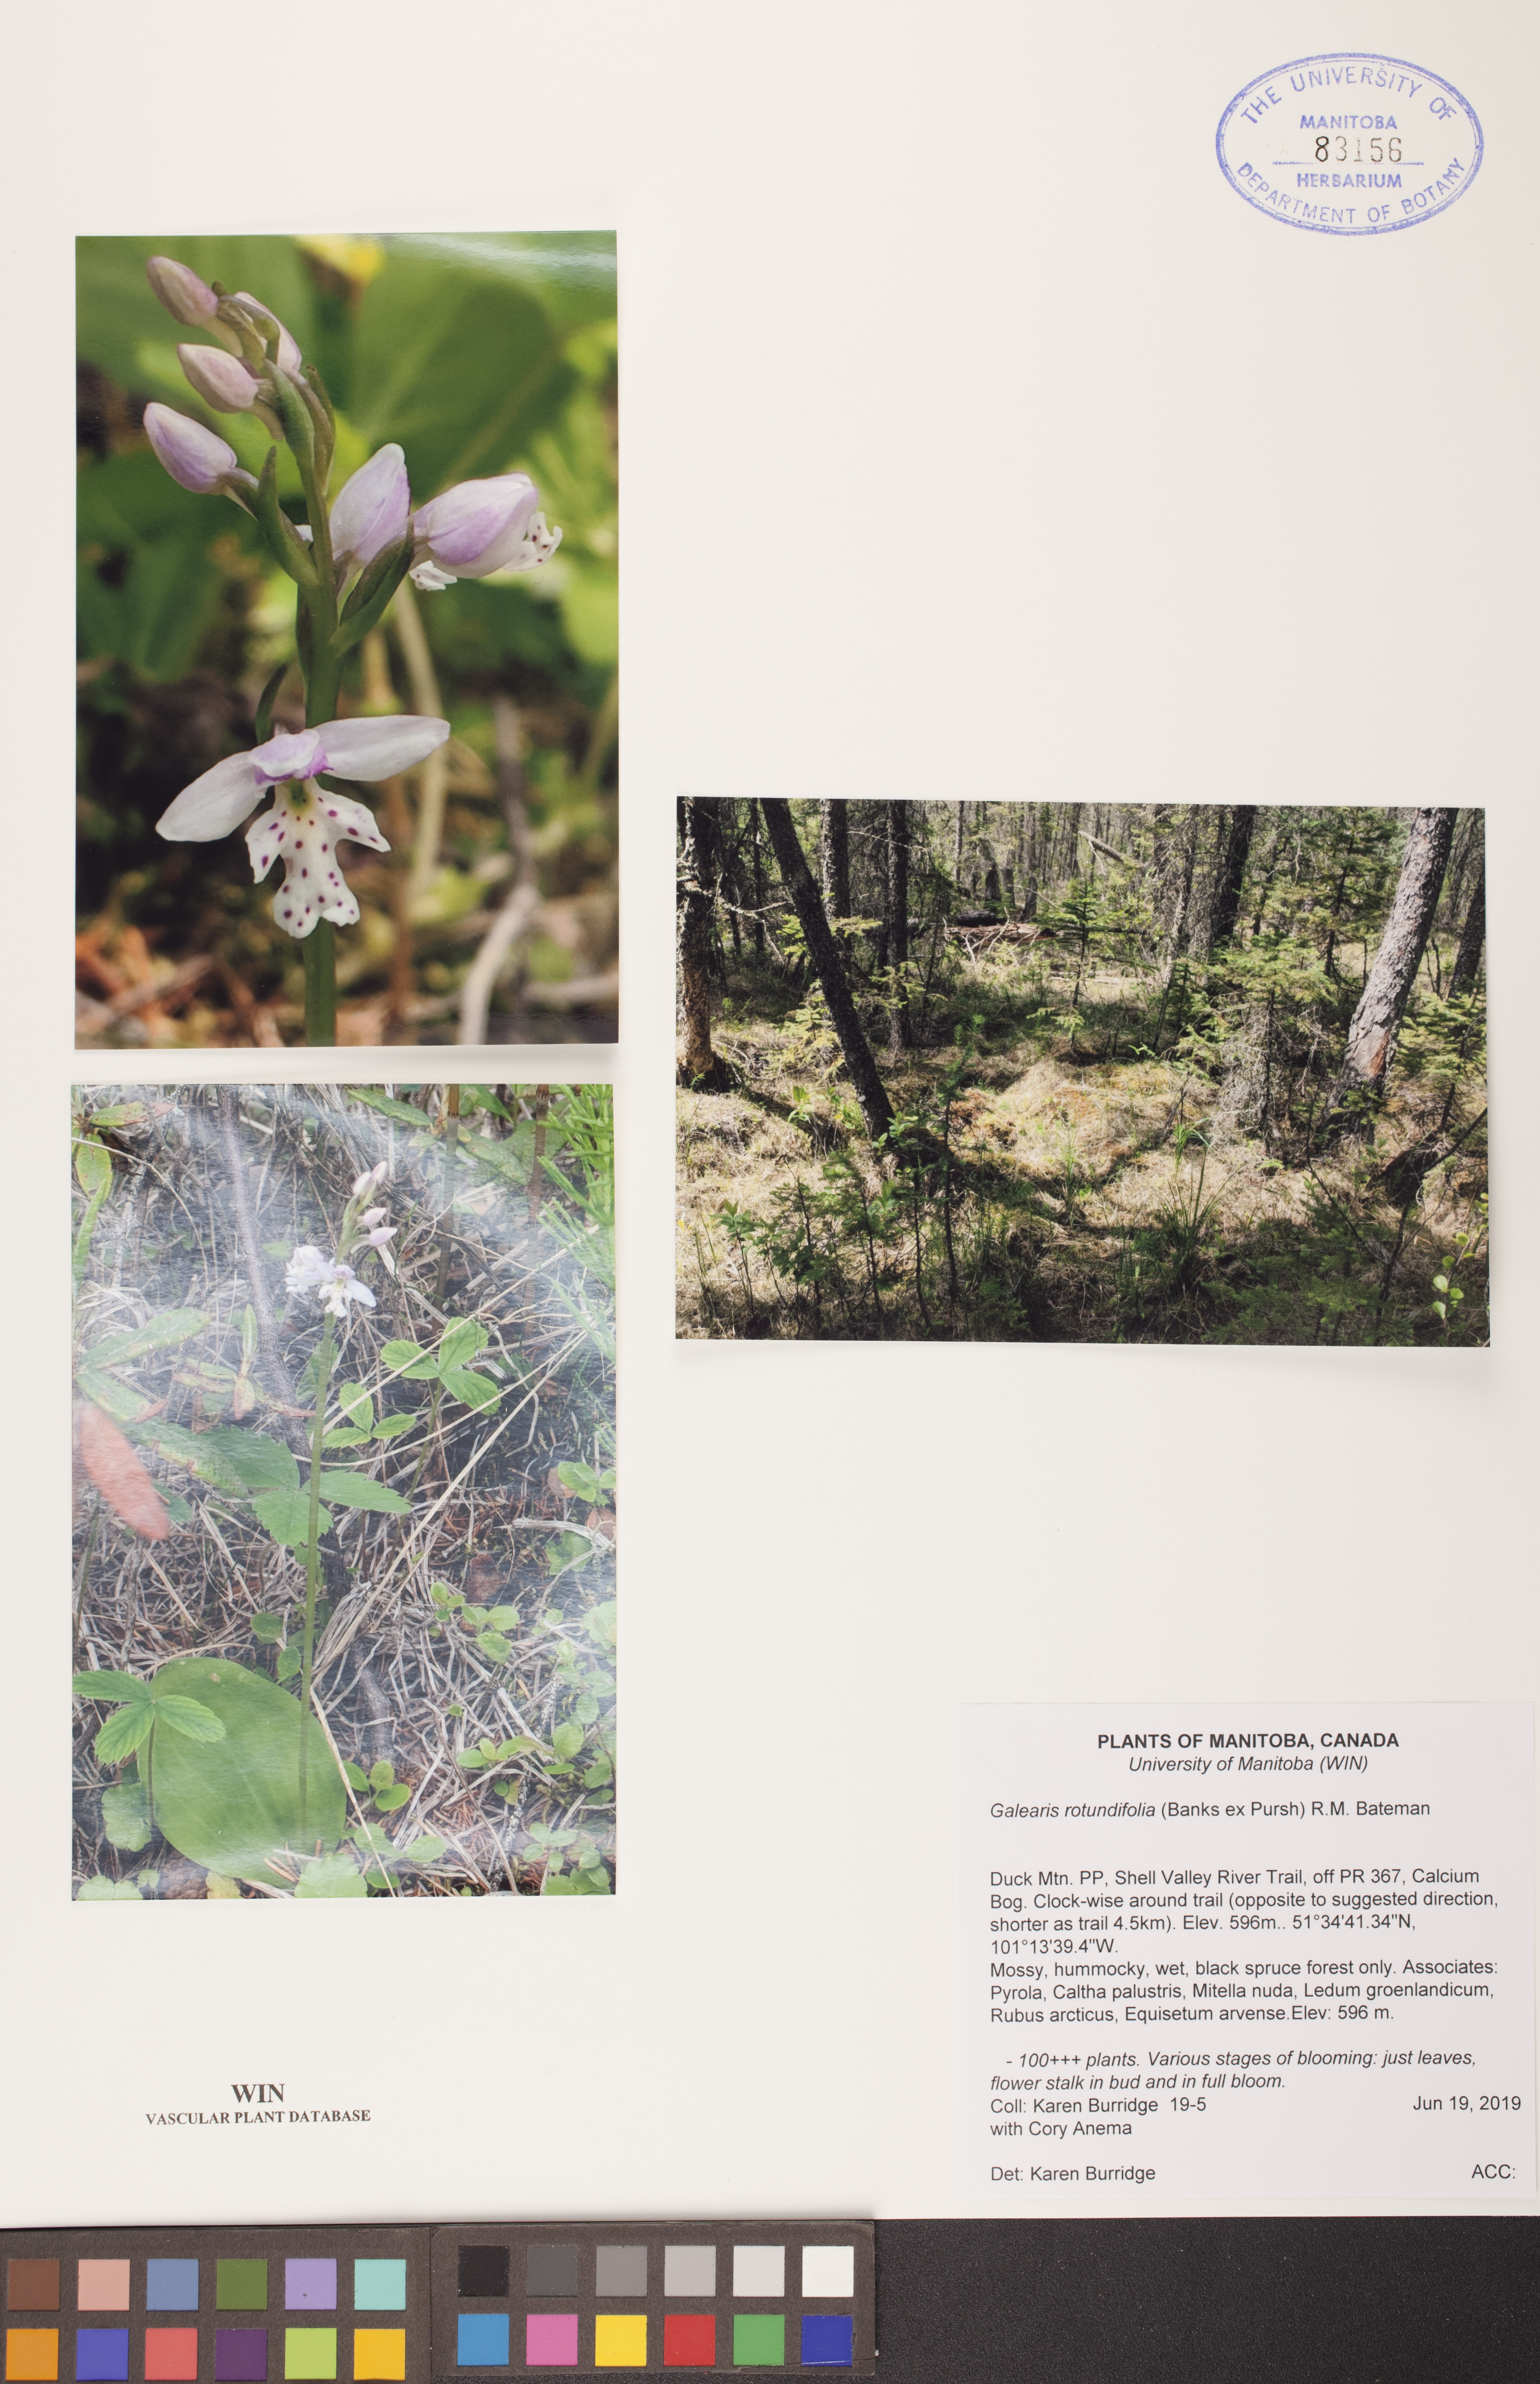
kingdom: Plantae
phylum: Tracheophyta
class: Liliopsida
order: Asparagales
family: Orchidaceae
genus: Galearis
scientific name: Galearis rotundifolia
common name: One-leaved orchis
